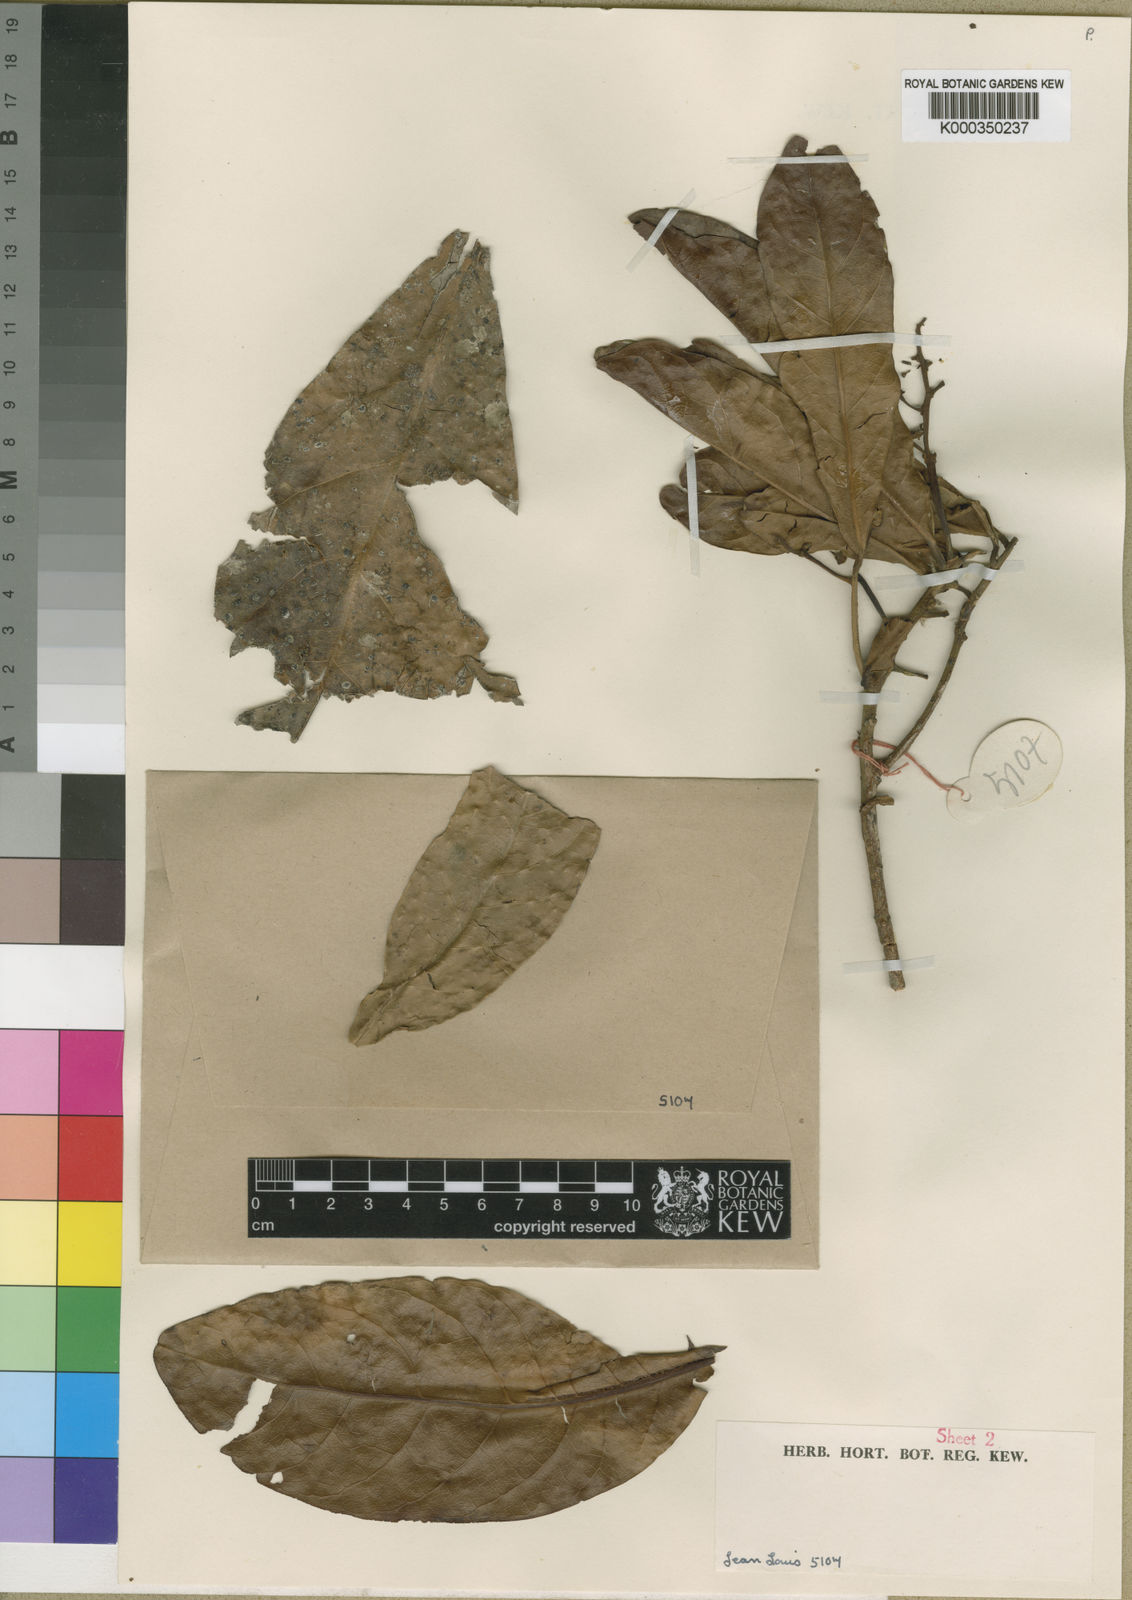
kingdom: Plantae
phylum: Tracheophyta
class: Magnoliopsida
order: Laurales
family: Lauraceae
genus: Beilschmiedia
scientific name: Beilschmiedia lebrunii
